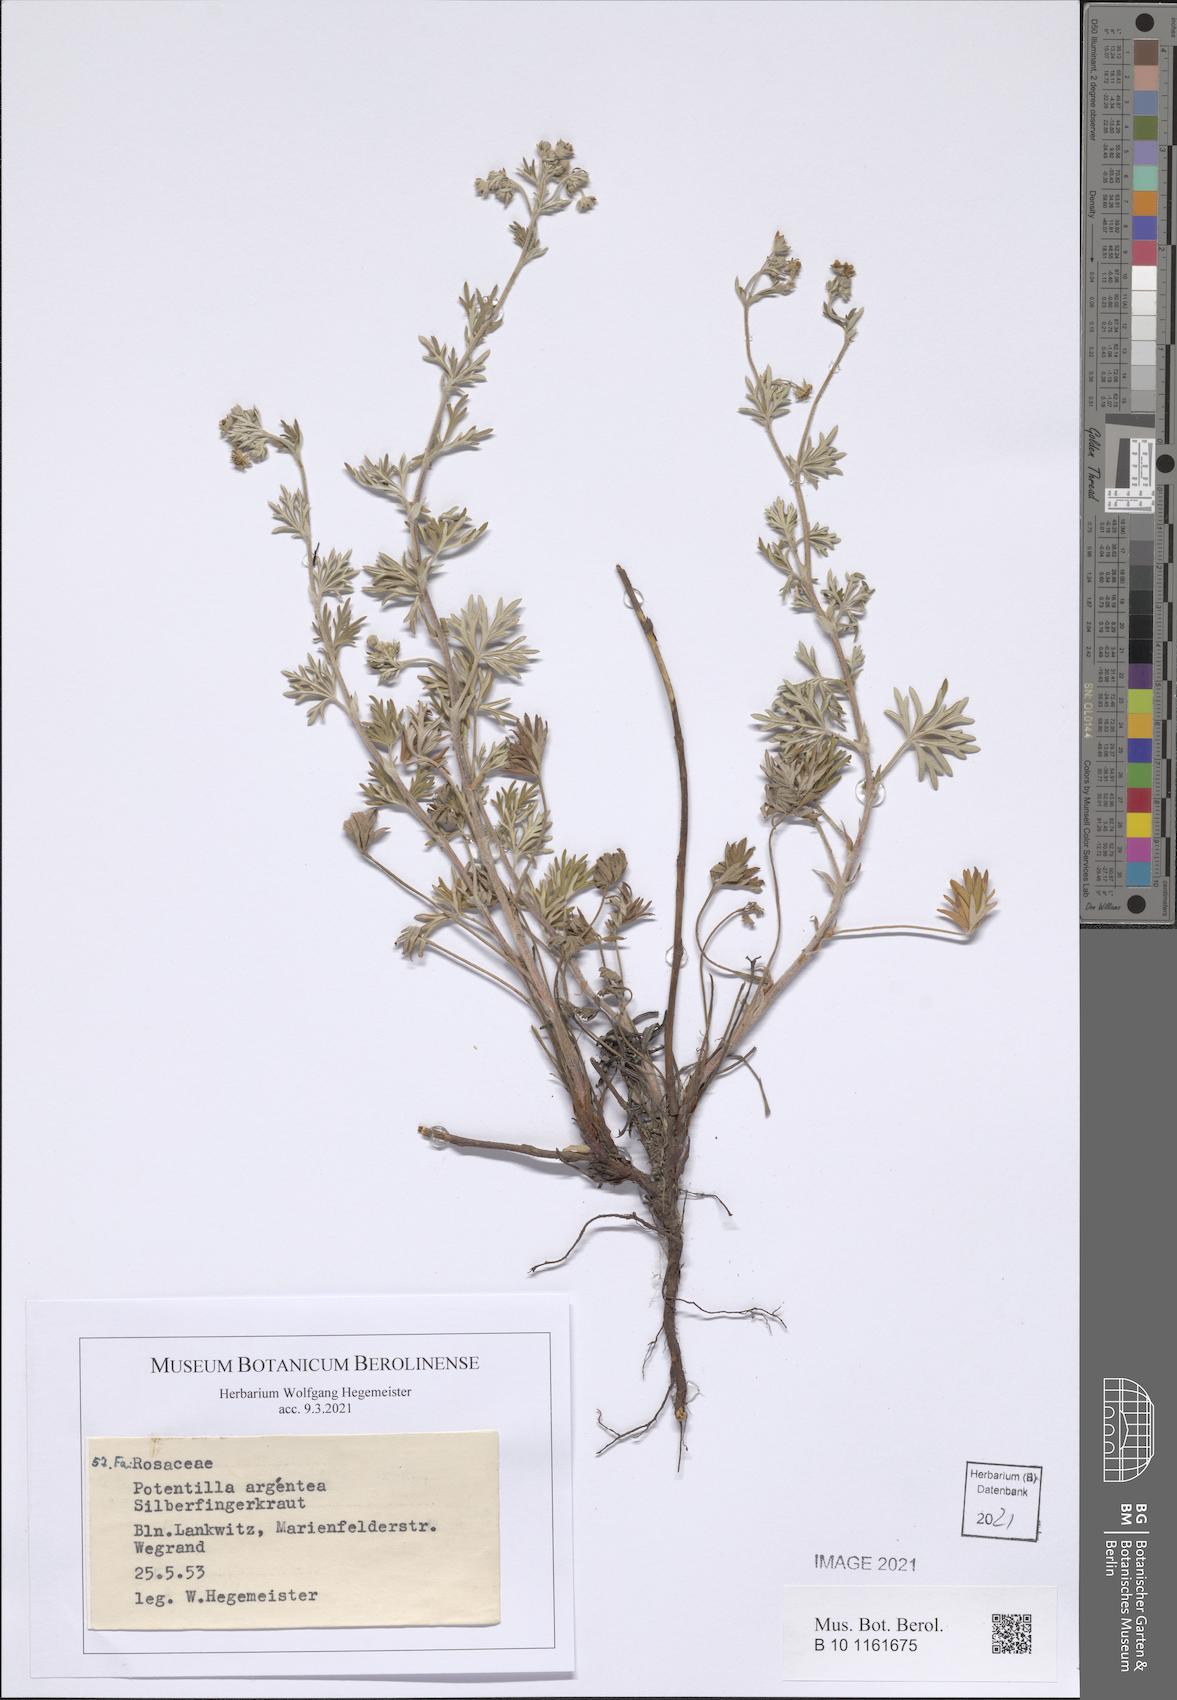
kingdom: Plantae
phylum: Tracheophyta
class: Magnoliopsida
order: Rosales
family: Rosaceae
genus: Potentilla
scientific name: Potentilla argentea
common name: Hoary cinquefoil
